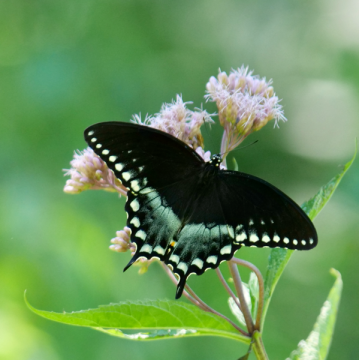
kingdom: Animalia
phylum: Arthropoda
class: Insecta
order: Lepidoptera
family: Papilionidae
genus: Pterourus
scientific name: Pterourus troilus
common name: Spicebush Swallowtail
